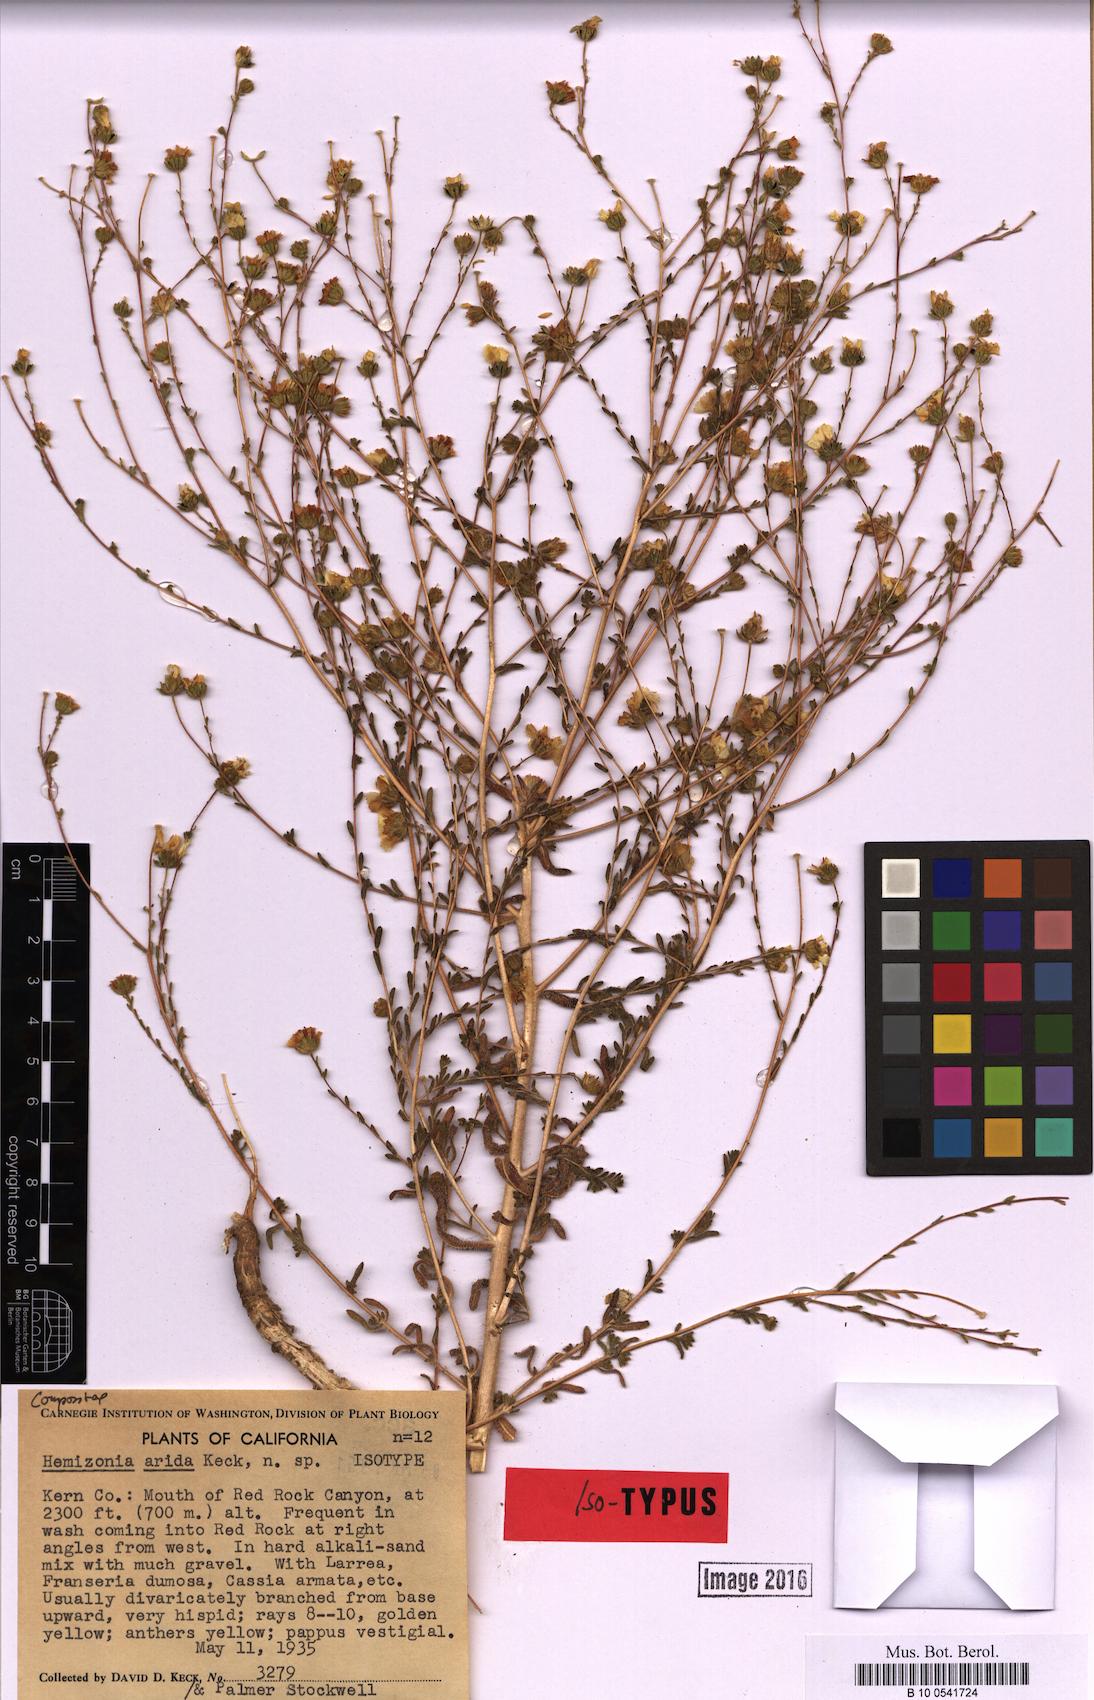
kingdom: Plantae
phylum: Tracheophyta
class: Magnoliopsida
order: Asterales
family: Asteraceae
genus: Deinandra
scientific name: Deinandra arida
